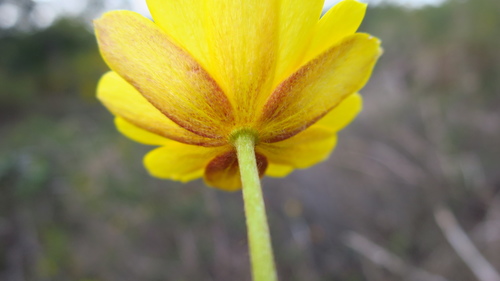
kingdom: Plantae
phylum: Tracheophyta
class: Magnoliopsida
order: Ranunculales
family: Ranunculaceae
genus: Anemone
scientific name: Anemone palmata
